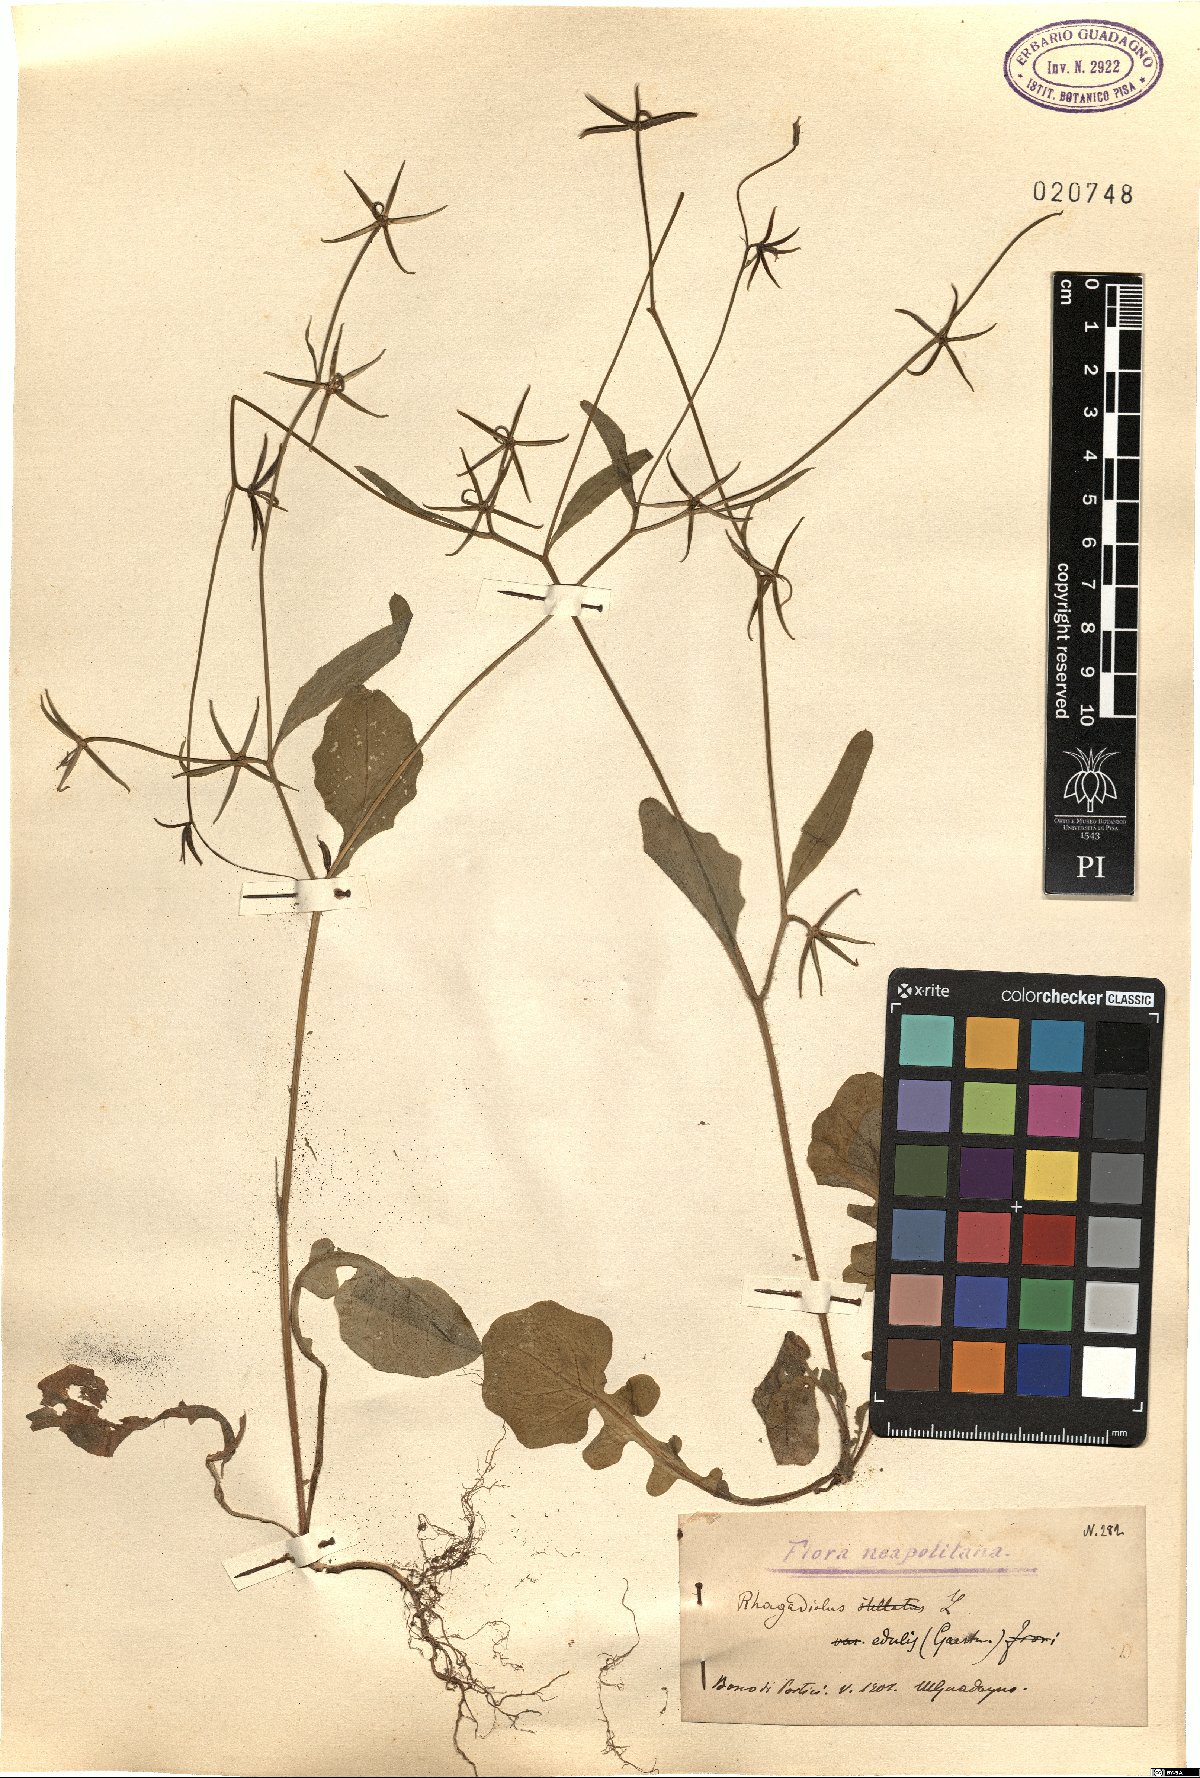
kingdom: Plantae
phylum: Tracheophyta
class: Magnoliopsida
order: Asterales
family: Asteraceae
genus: Rhagadiolus
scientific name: Rhagadiolus edulis
